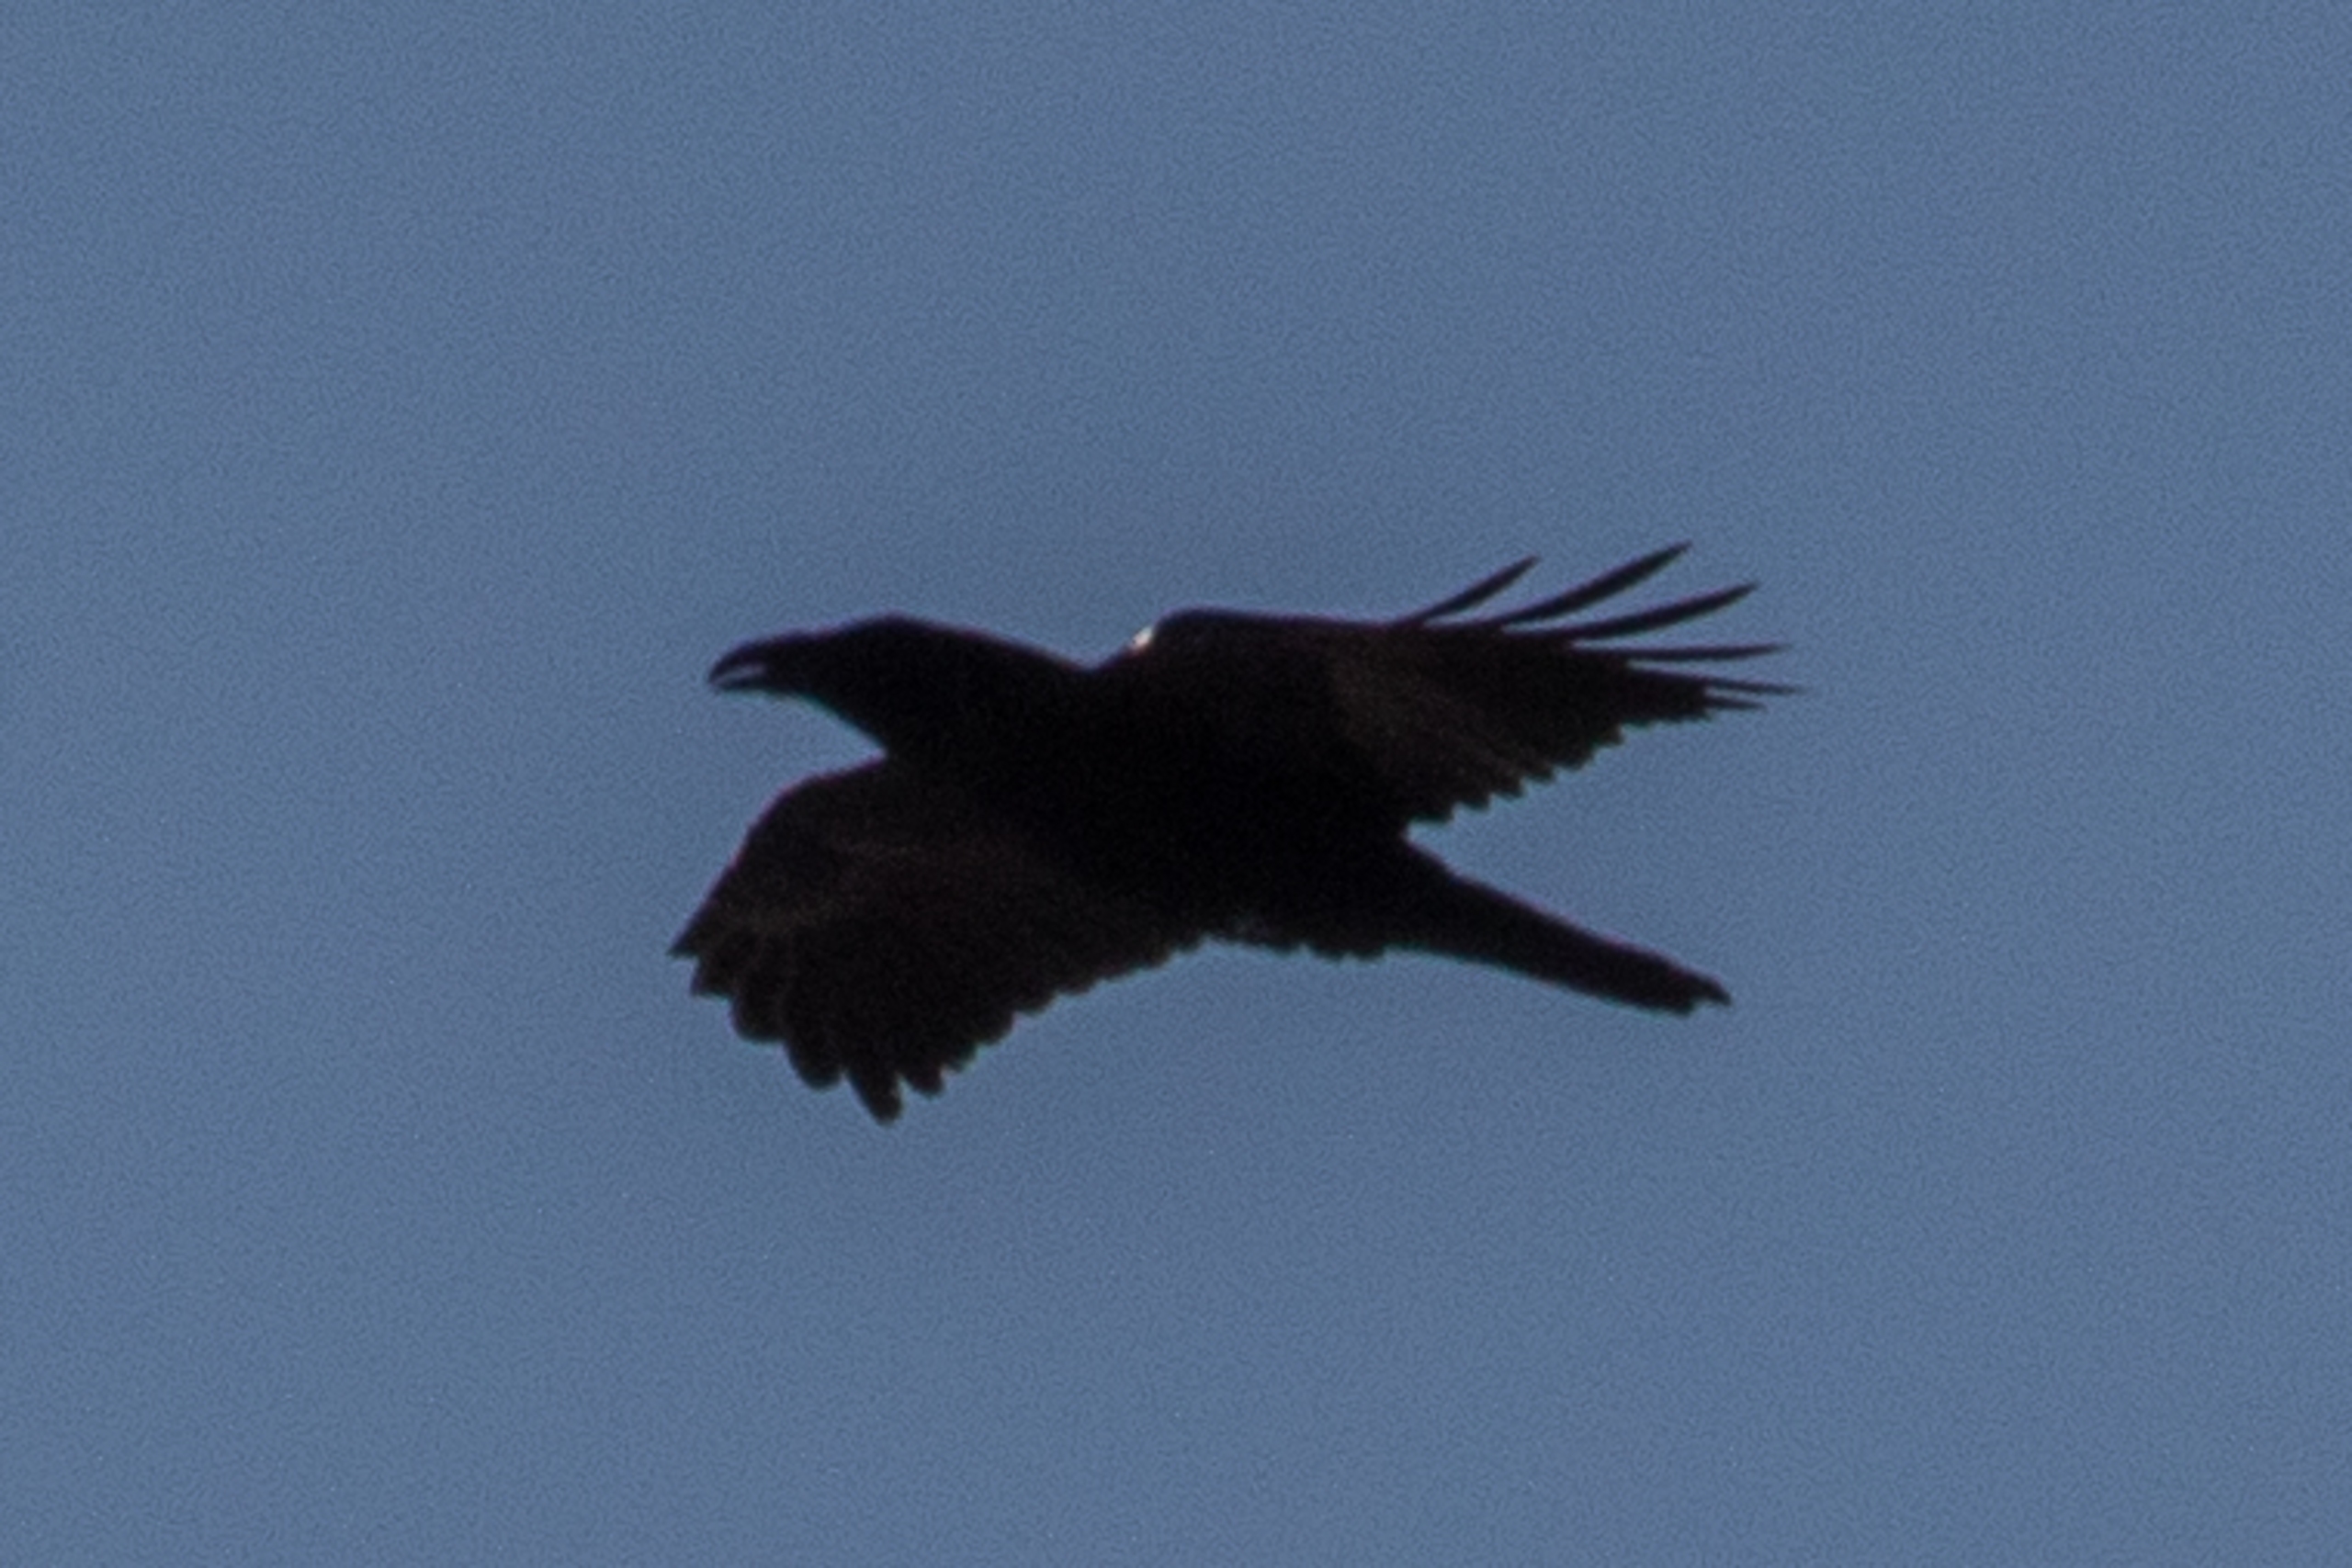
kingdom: Animalia
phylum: Chordata
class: Aves
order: Passeriformes
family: Corvidae
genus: Corvus
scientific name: Corvus corax
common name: Ravn
